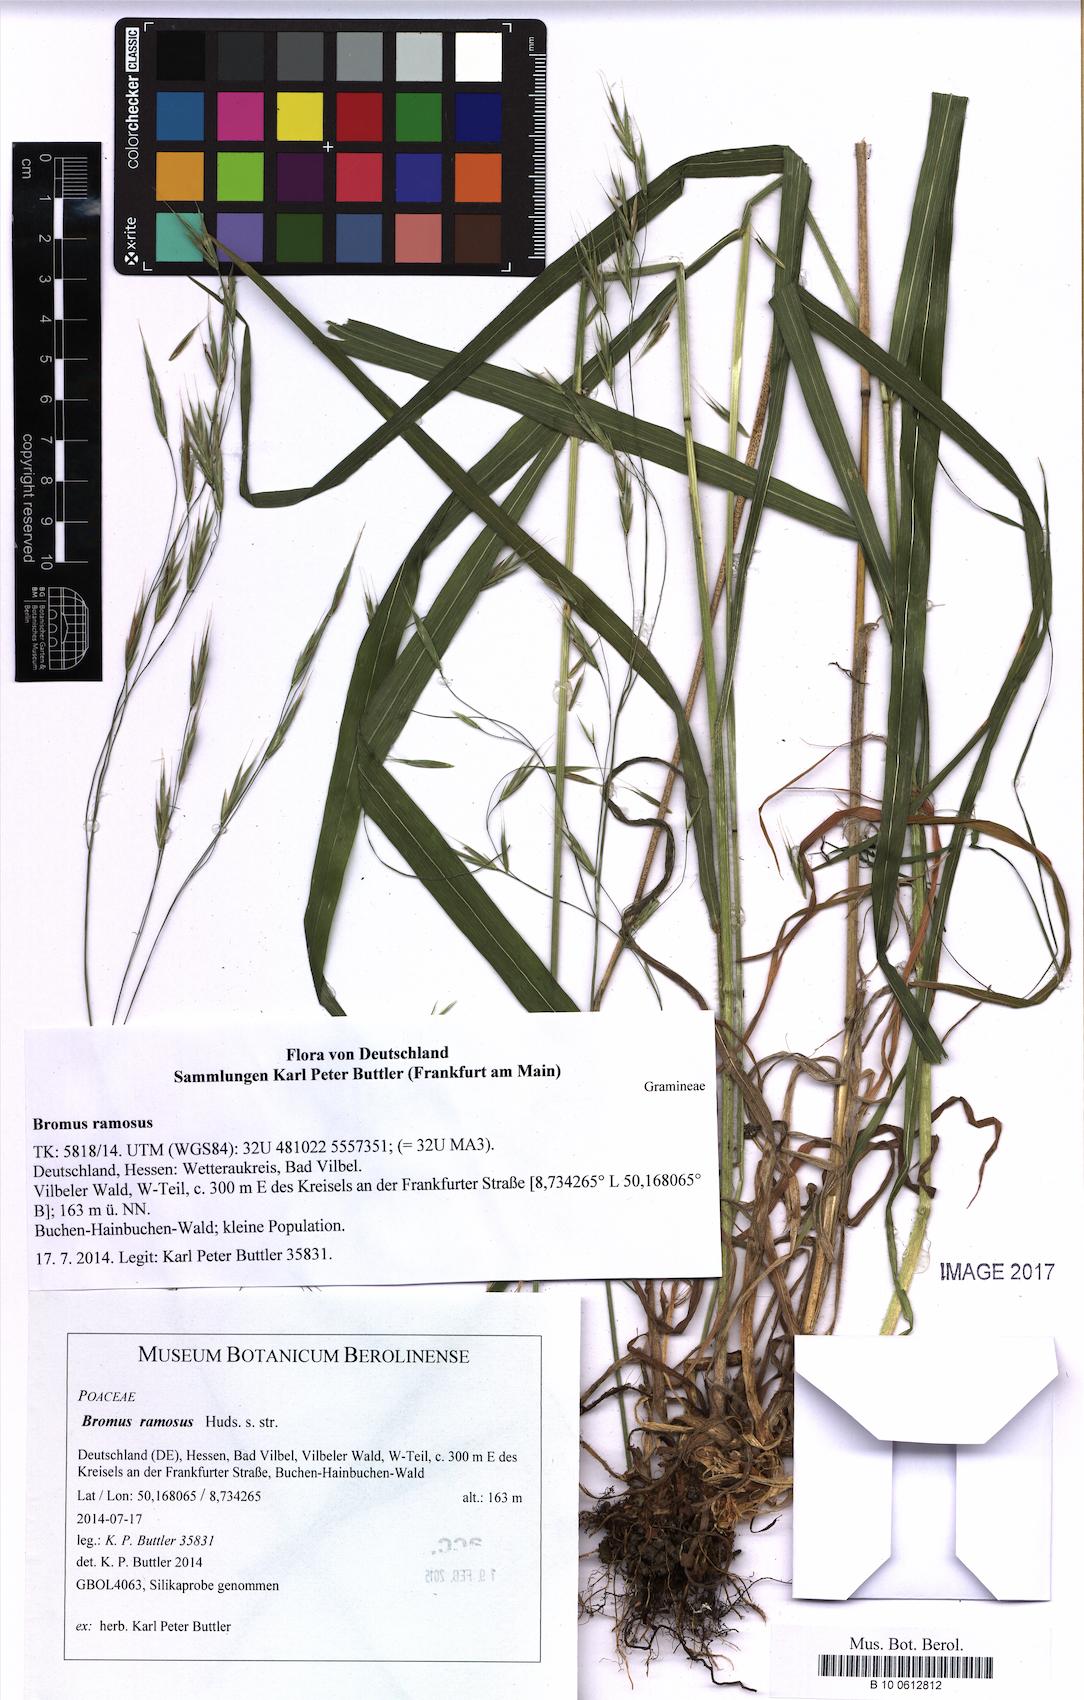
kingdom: Plantae
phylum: Tracheophyta
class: Liliopsida
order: Poales
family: Poaceae
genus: Bromus
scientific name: Bromus ramosus
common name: Hairy brome
